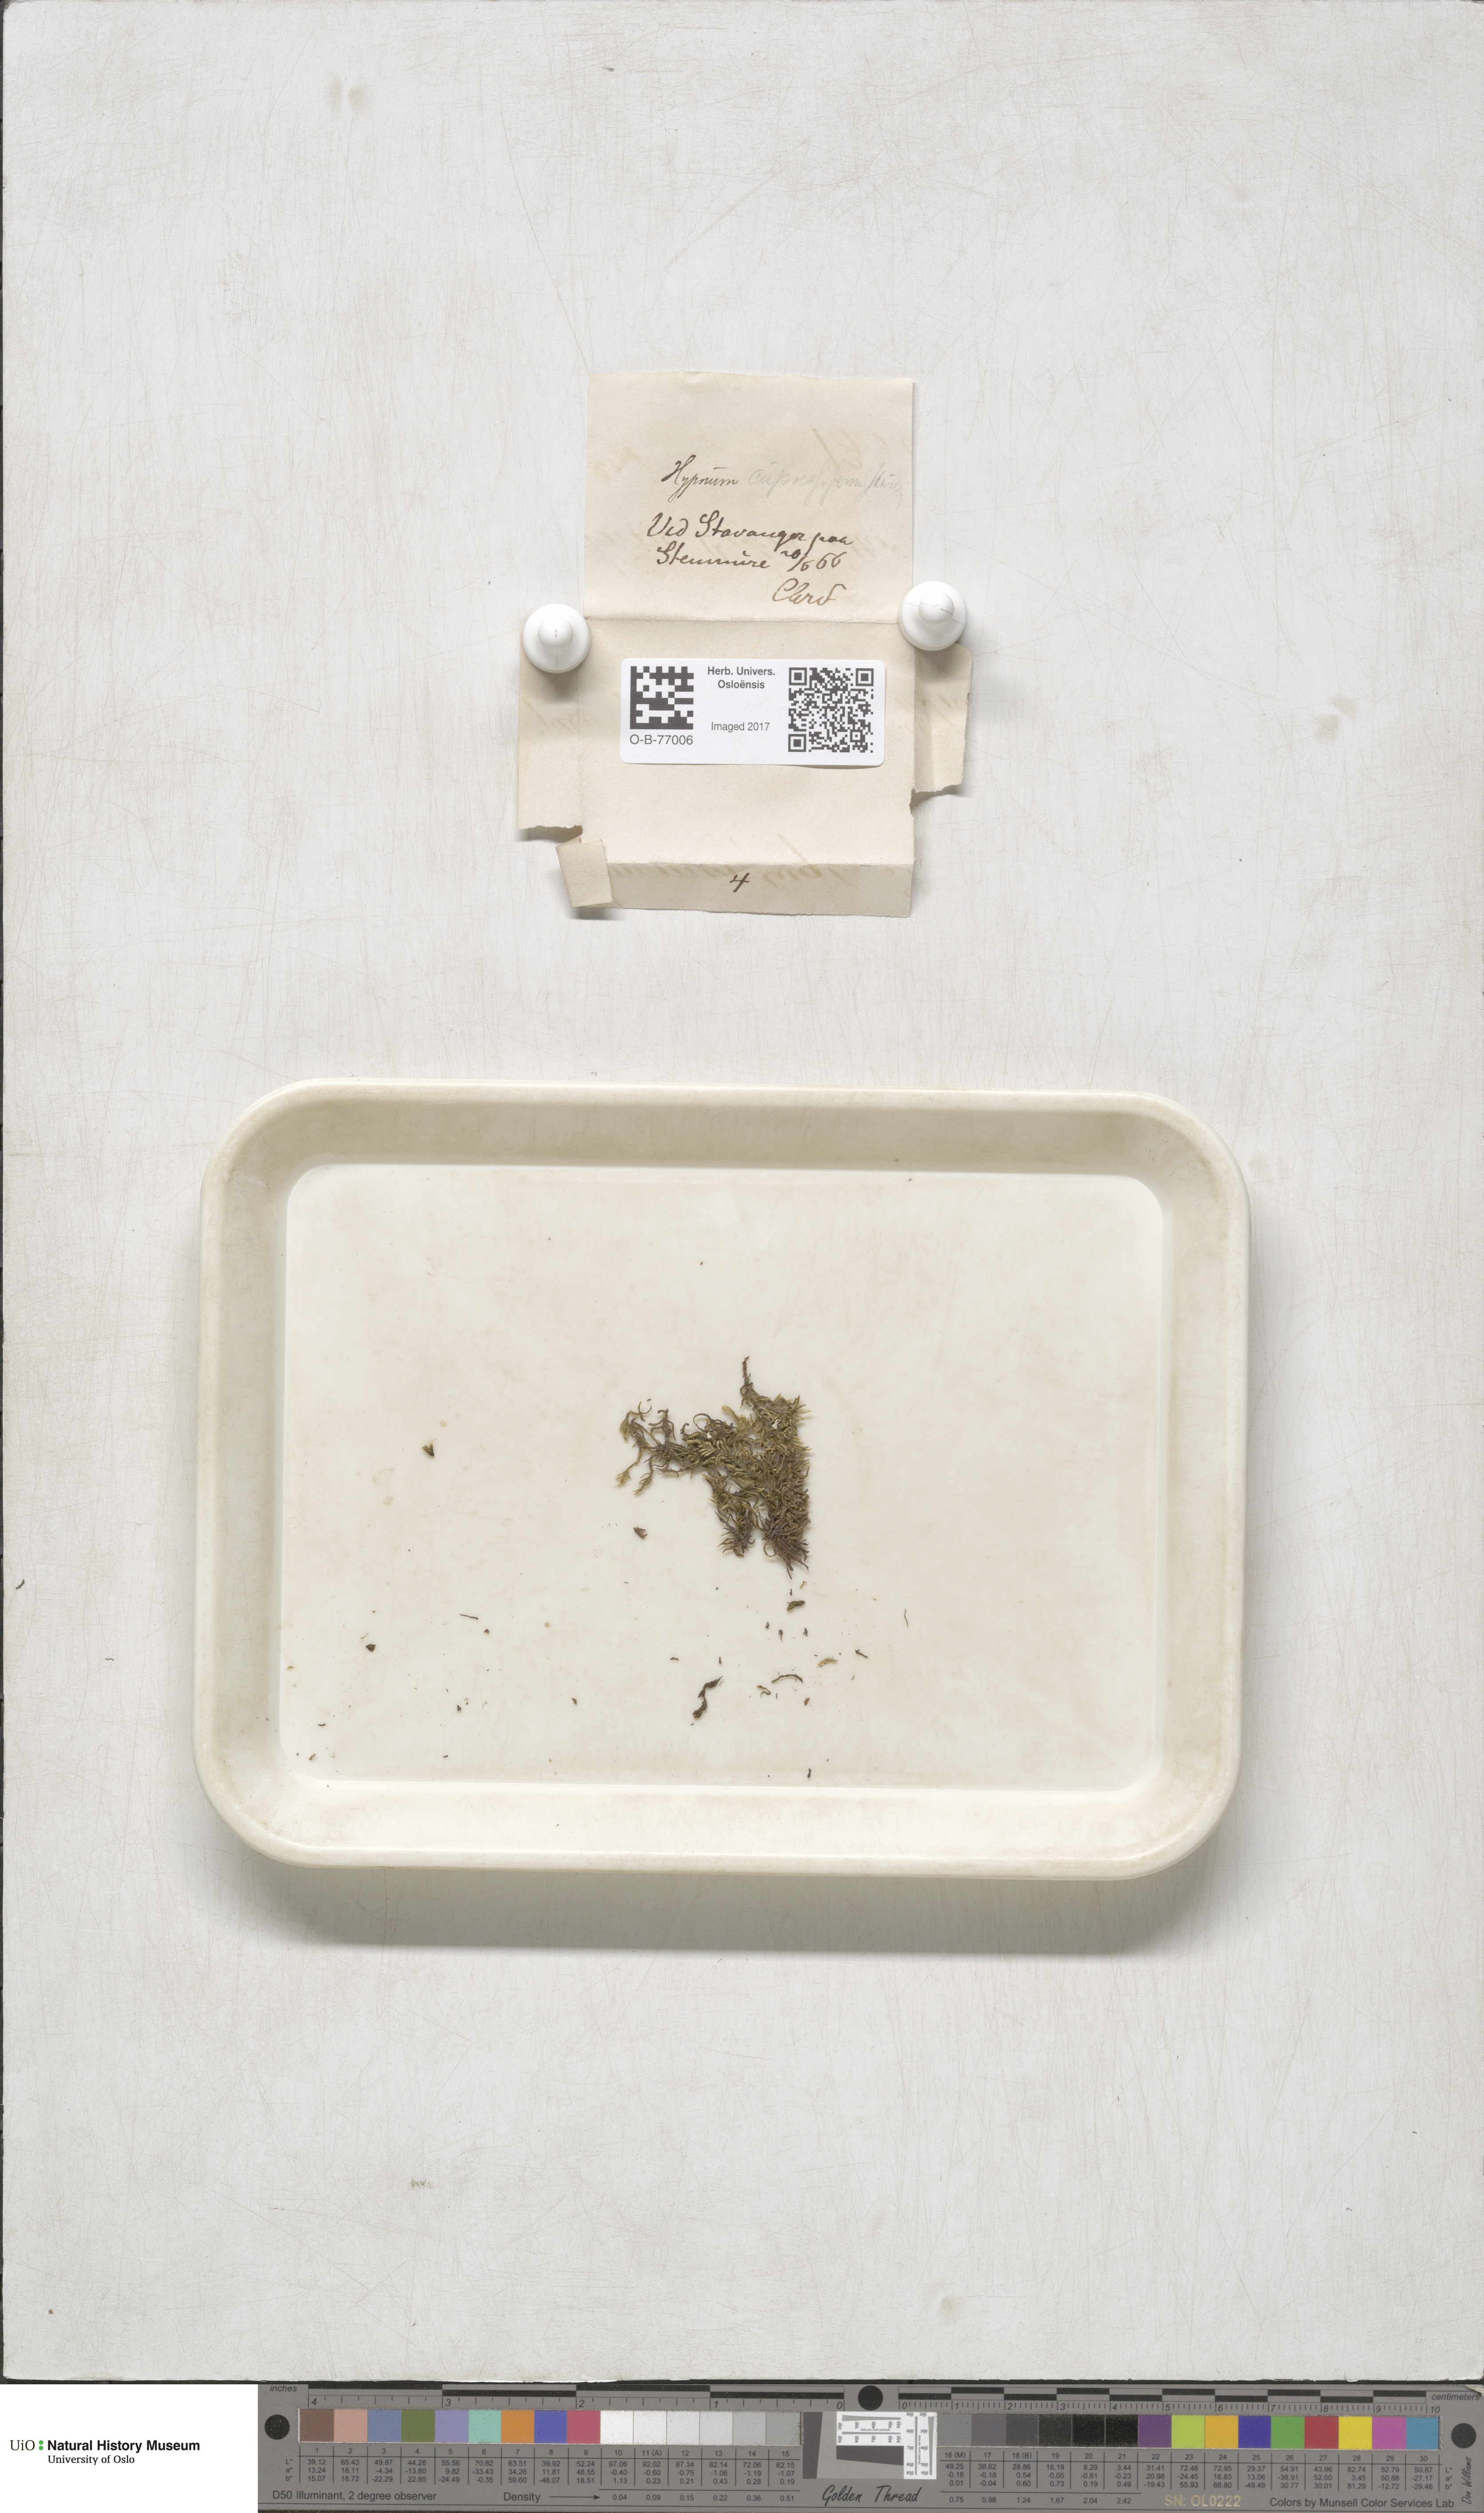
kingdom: Plantae
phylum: Bryophyta
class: Bryopsida
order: Hypnales
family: Hypnaceae
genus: Hypnum
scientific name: Hypnum cupressiforme
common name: Cypress-leaved plait-moss
